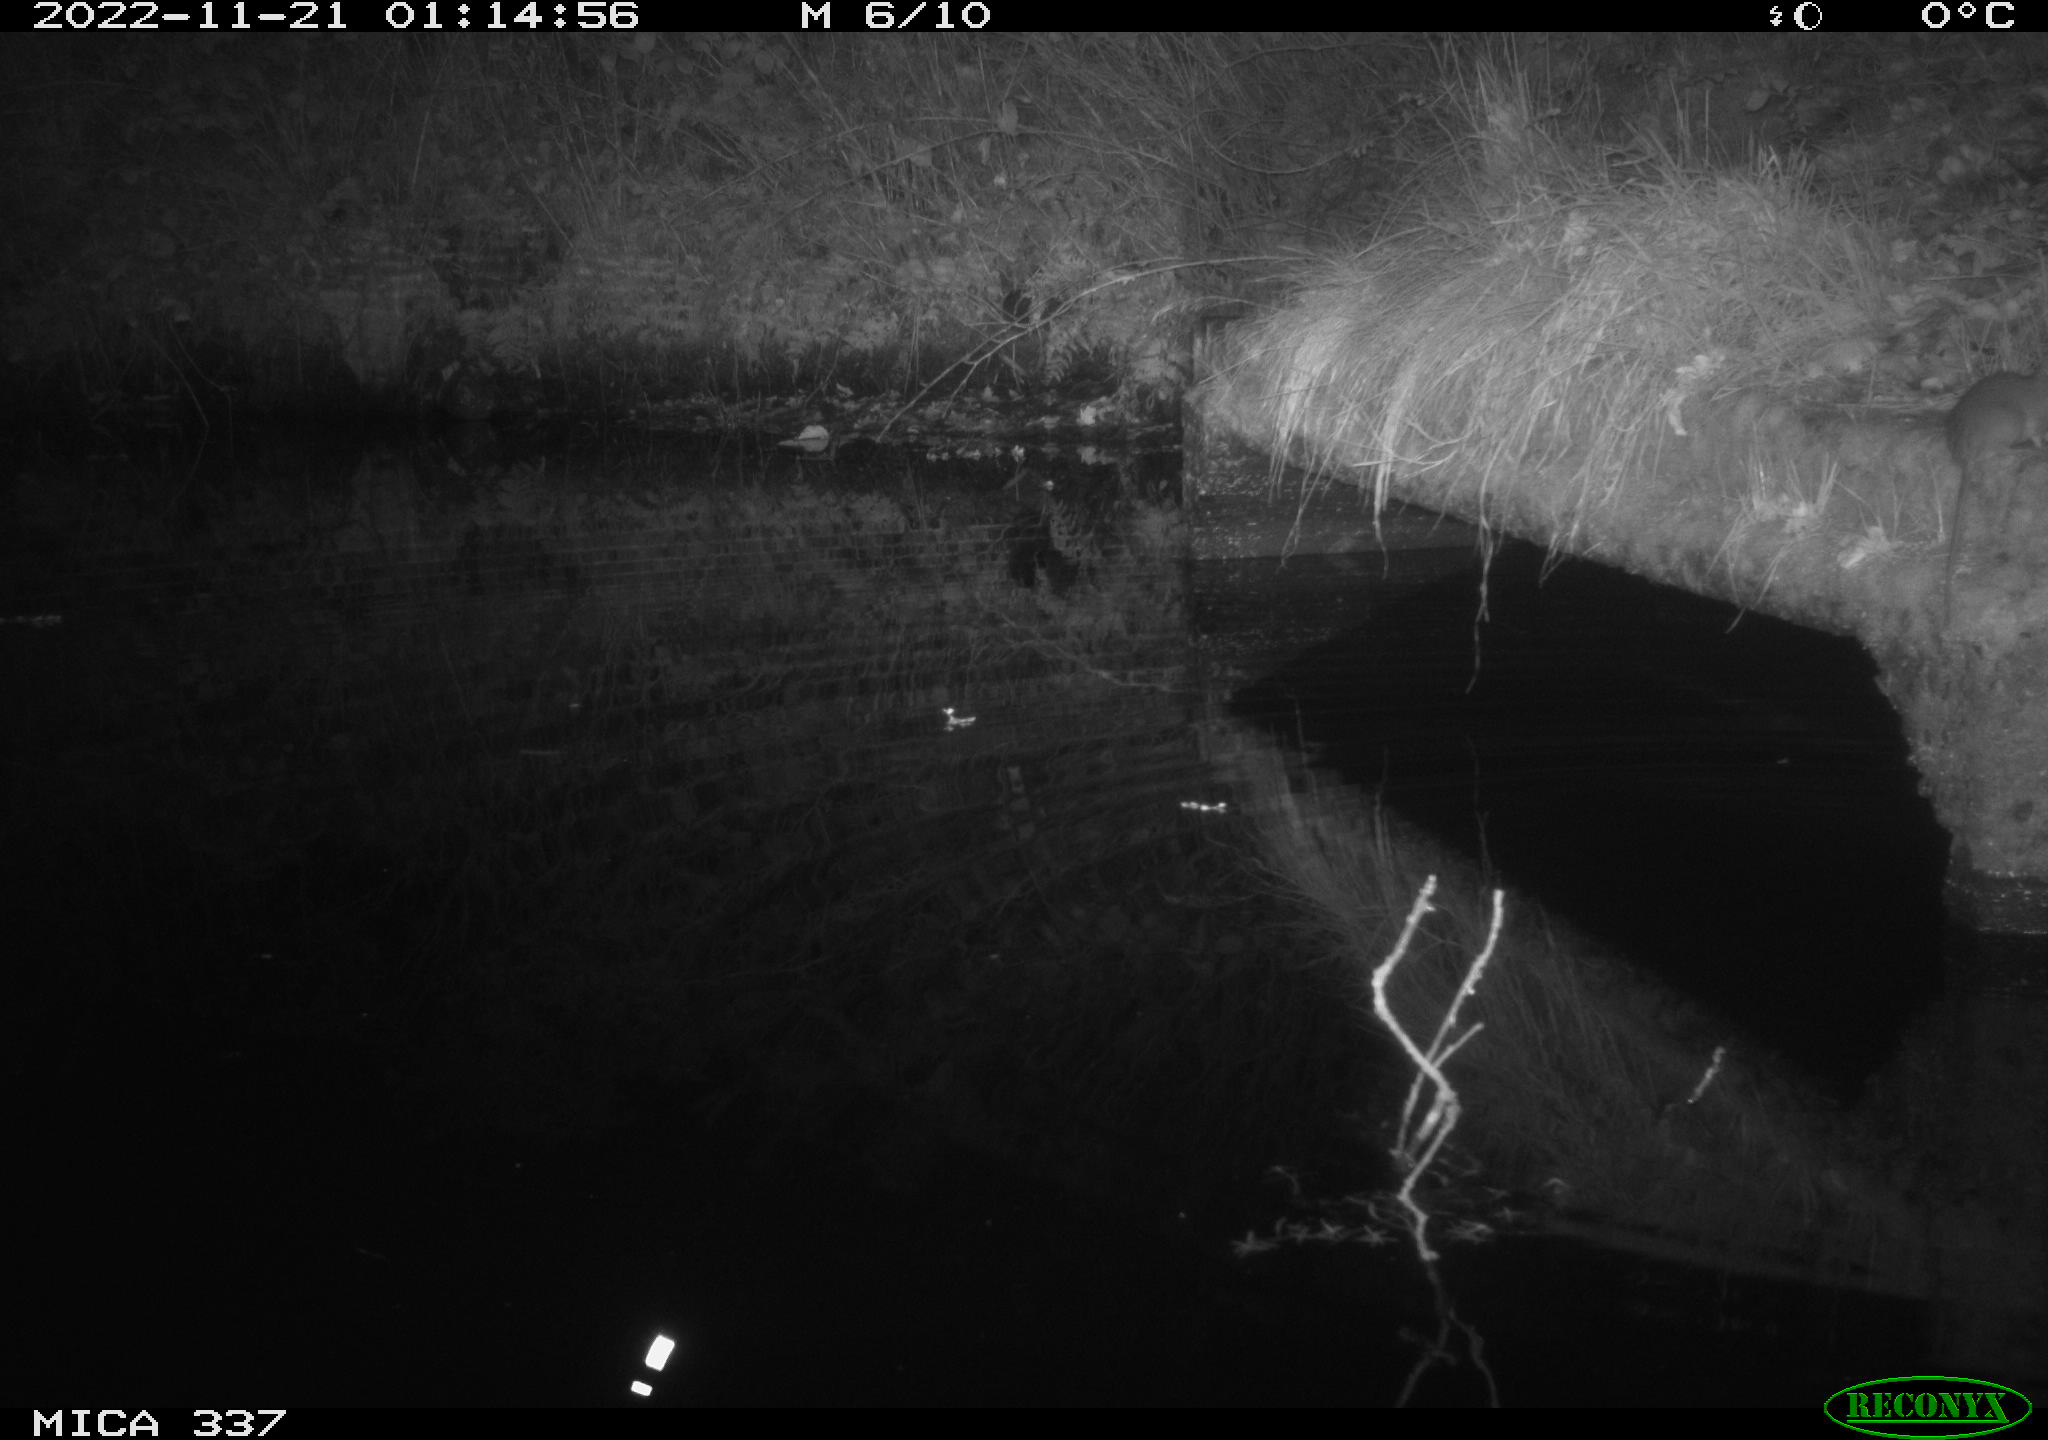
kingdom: Animalia
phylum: Chordata
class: Mammalia
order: Rodentia
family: Muridae
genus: Rattus
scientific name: Rattus norvegicus
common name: Brown rat
